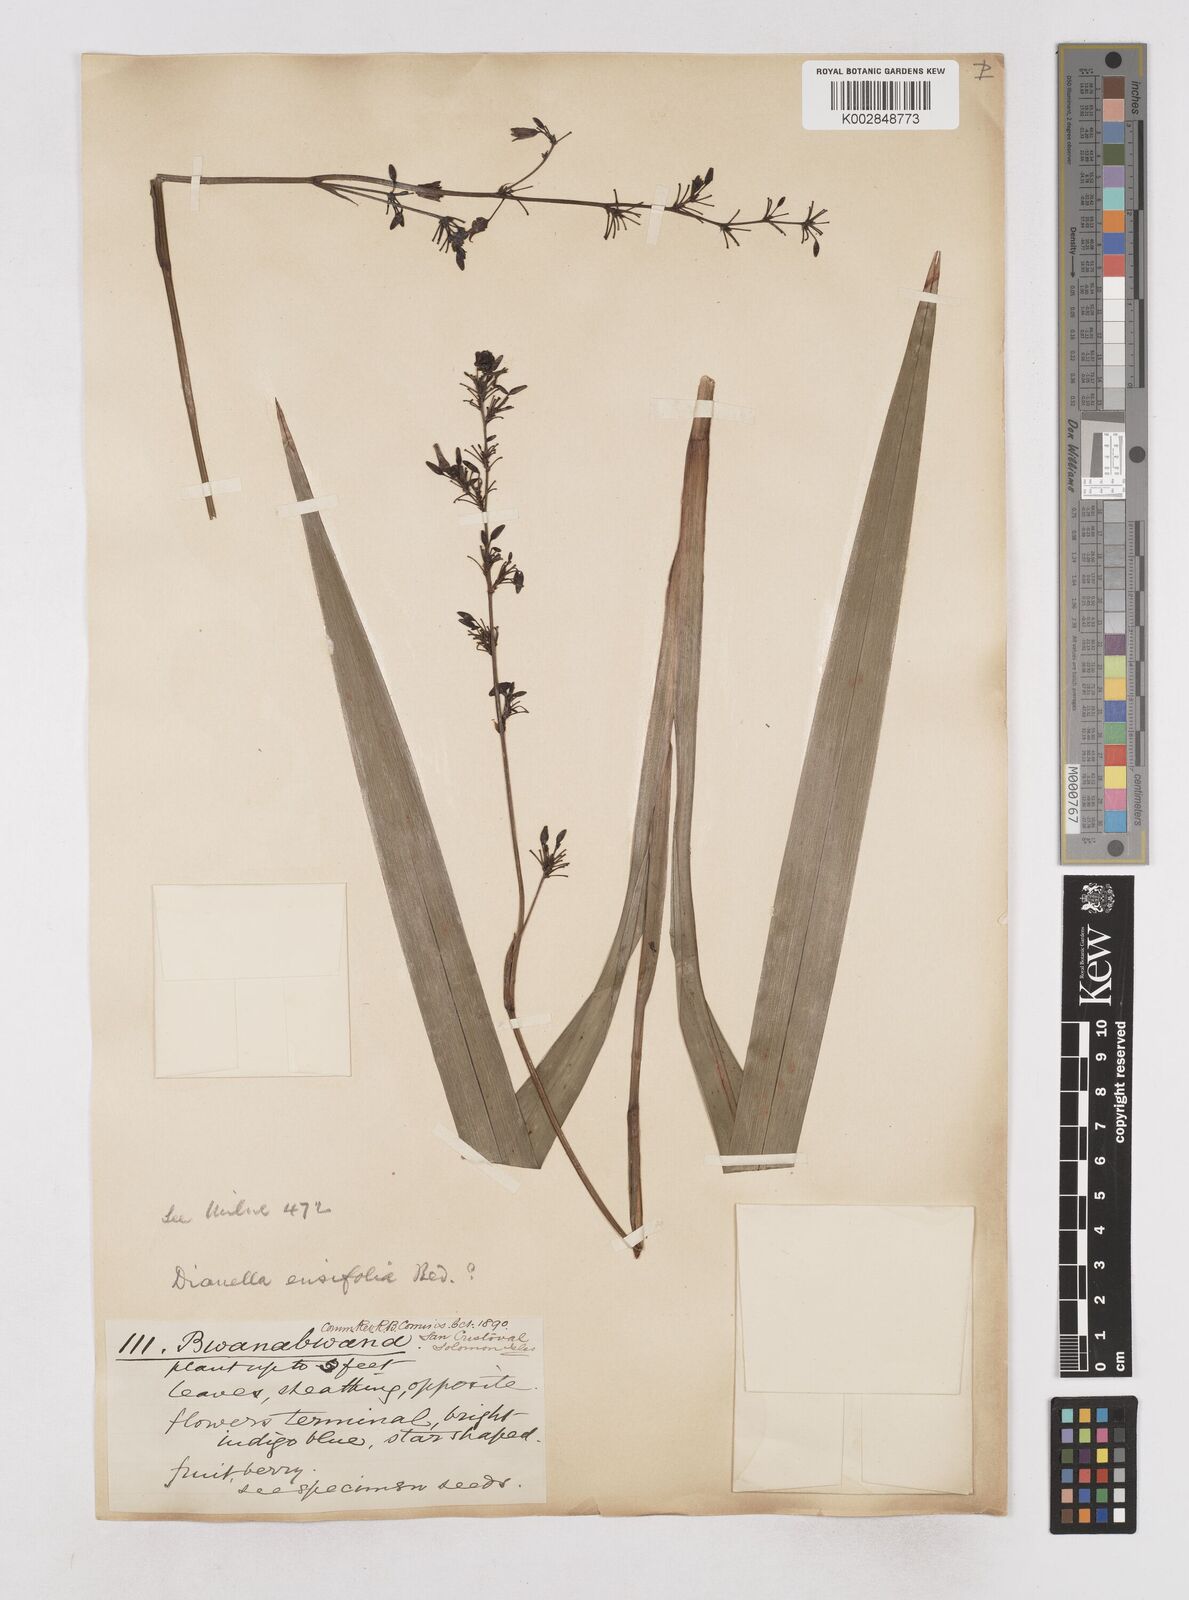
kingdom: Plantae
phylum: Tracheophyta
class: Liliopsida
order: Asparagales
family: Asphodelaceae
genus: Dianella
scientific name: Dianella ensifolia
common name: New zealand lilyplant
